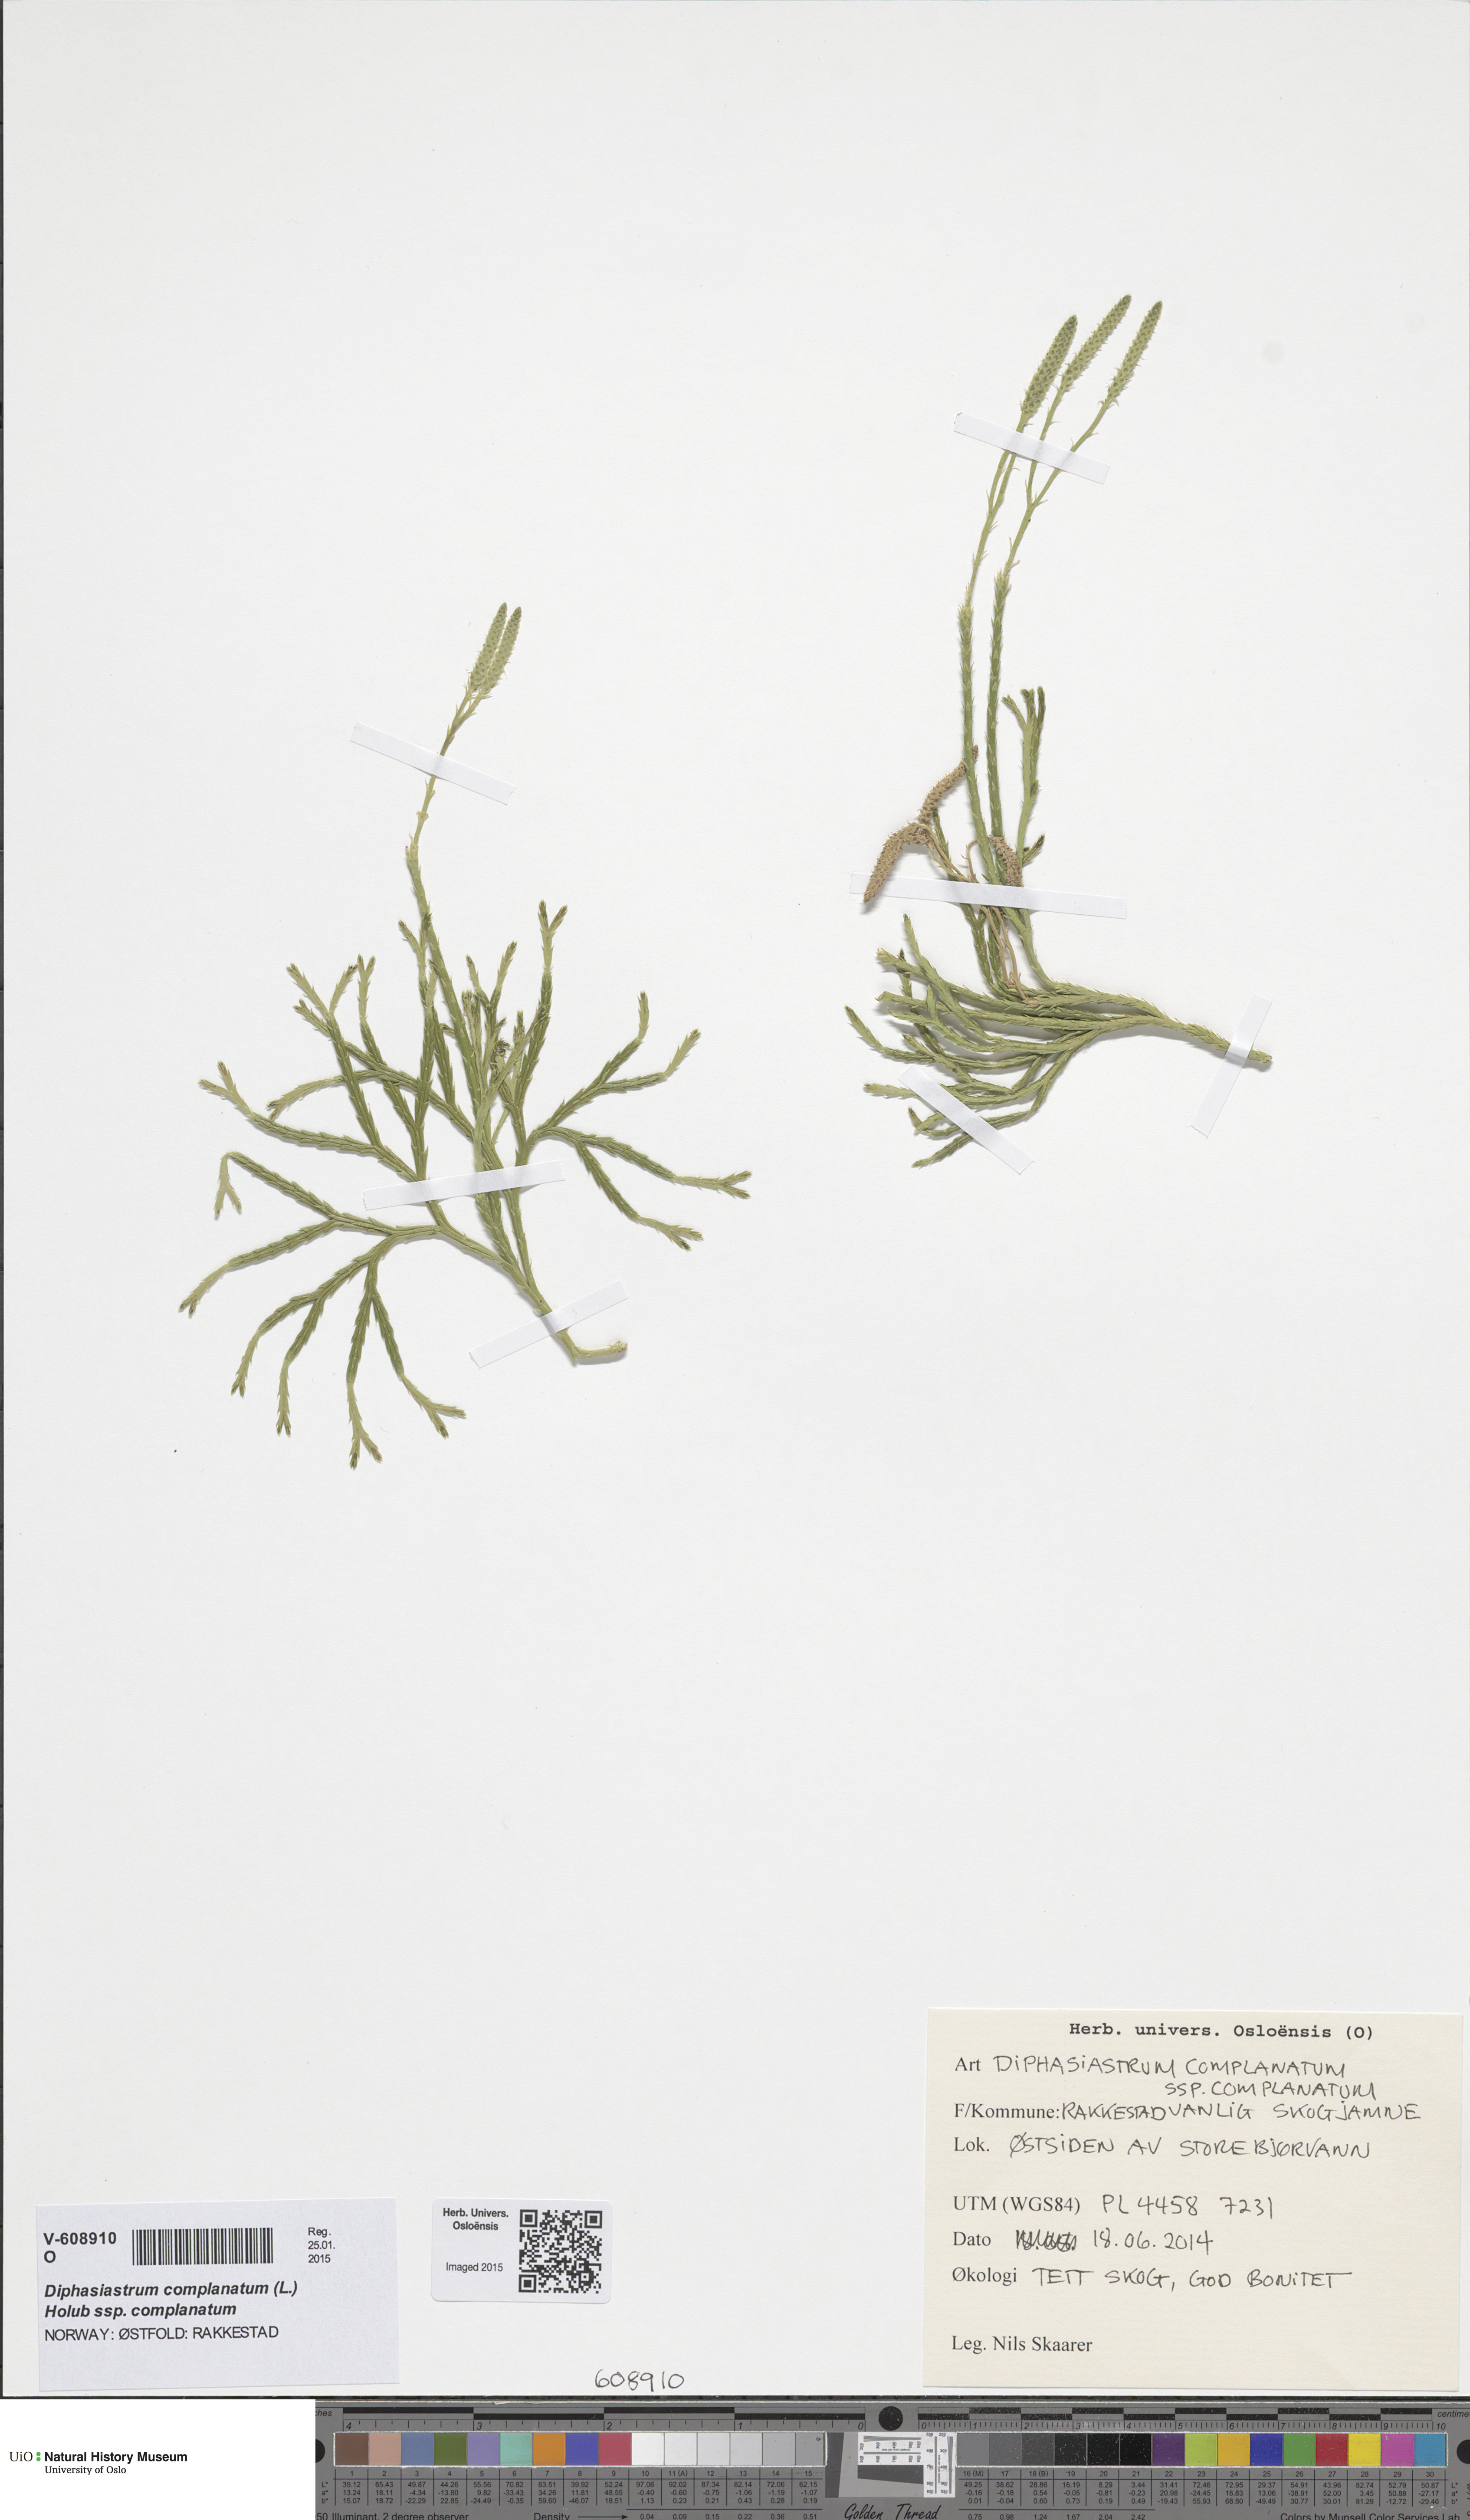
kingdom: Plantae
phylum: Tracheophyta
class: Lycopodiopsida
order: Lycopodiales
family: Lycopodiaceae
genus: Diphasiastrum
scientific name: Diphasiastrum complanatum
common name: Northern running-pine
